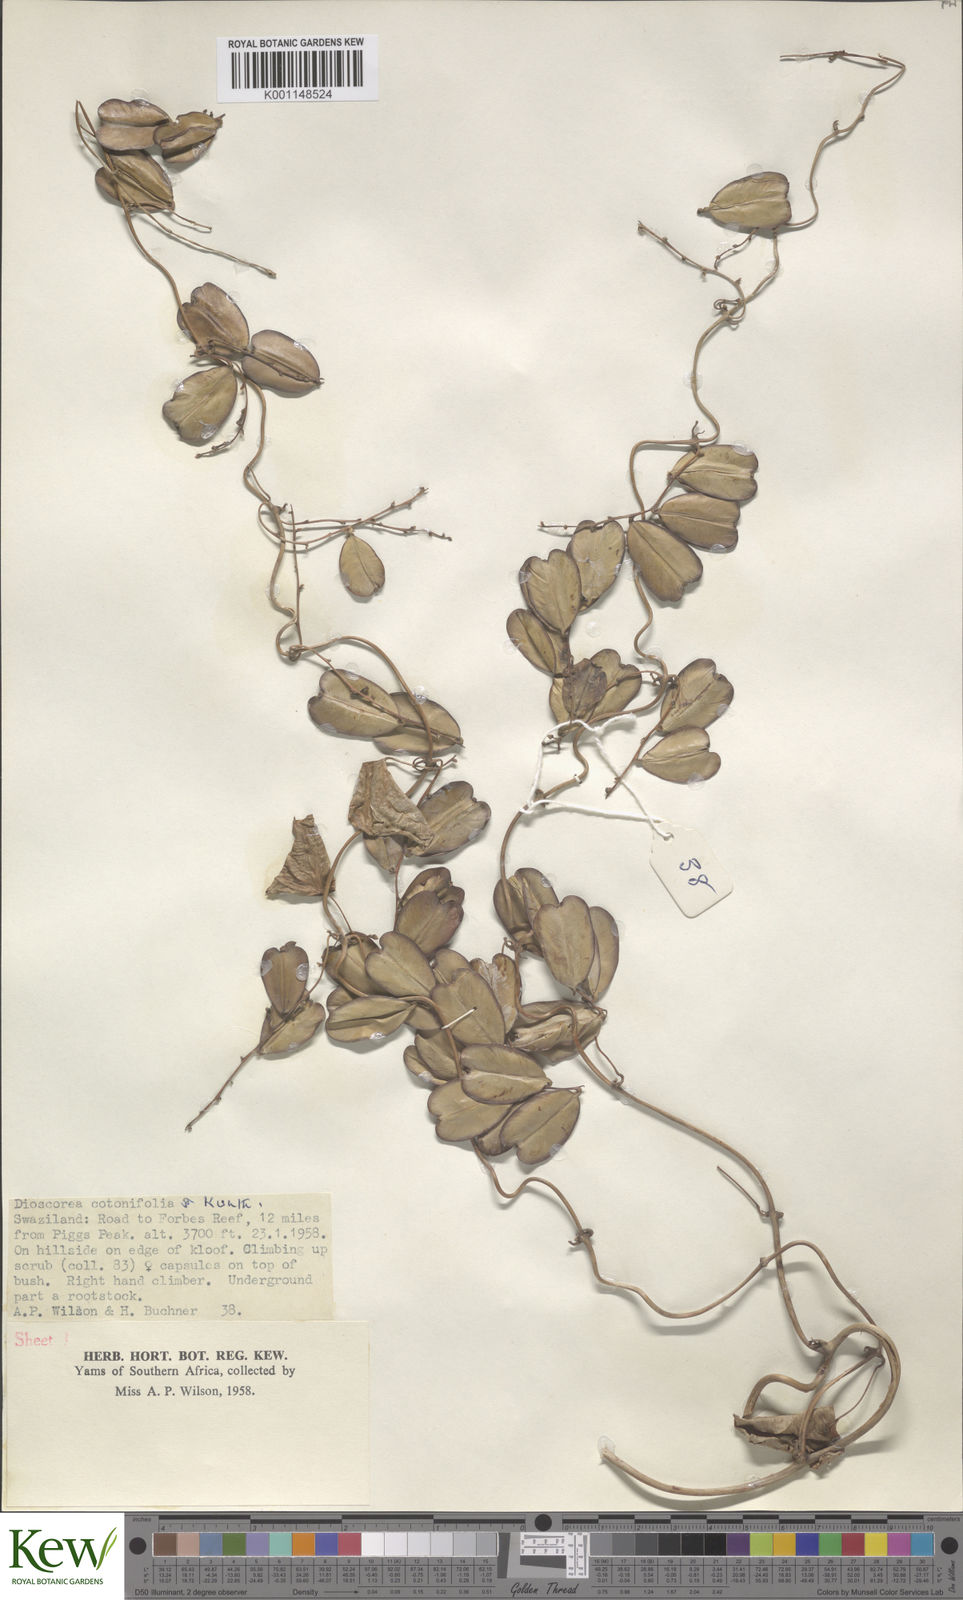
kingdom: Plantae
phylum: Tracheophyta
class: Liliopsida
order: Dioscoreales
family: Dioscoreaceae
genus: Dioscorea
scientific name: Dioscorea cotinifolia
